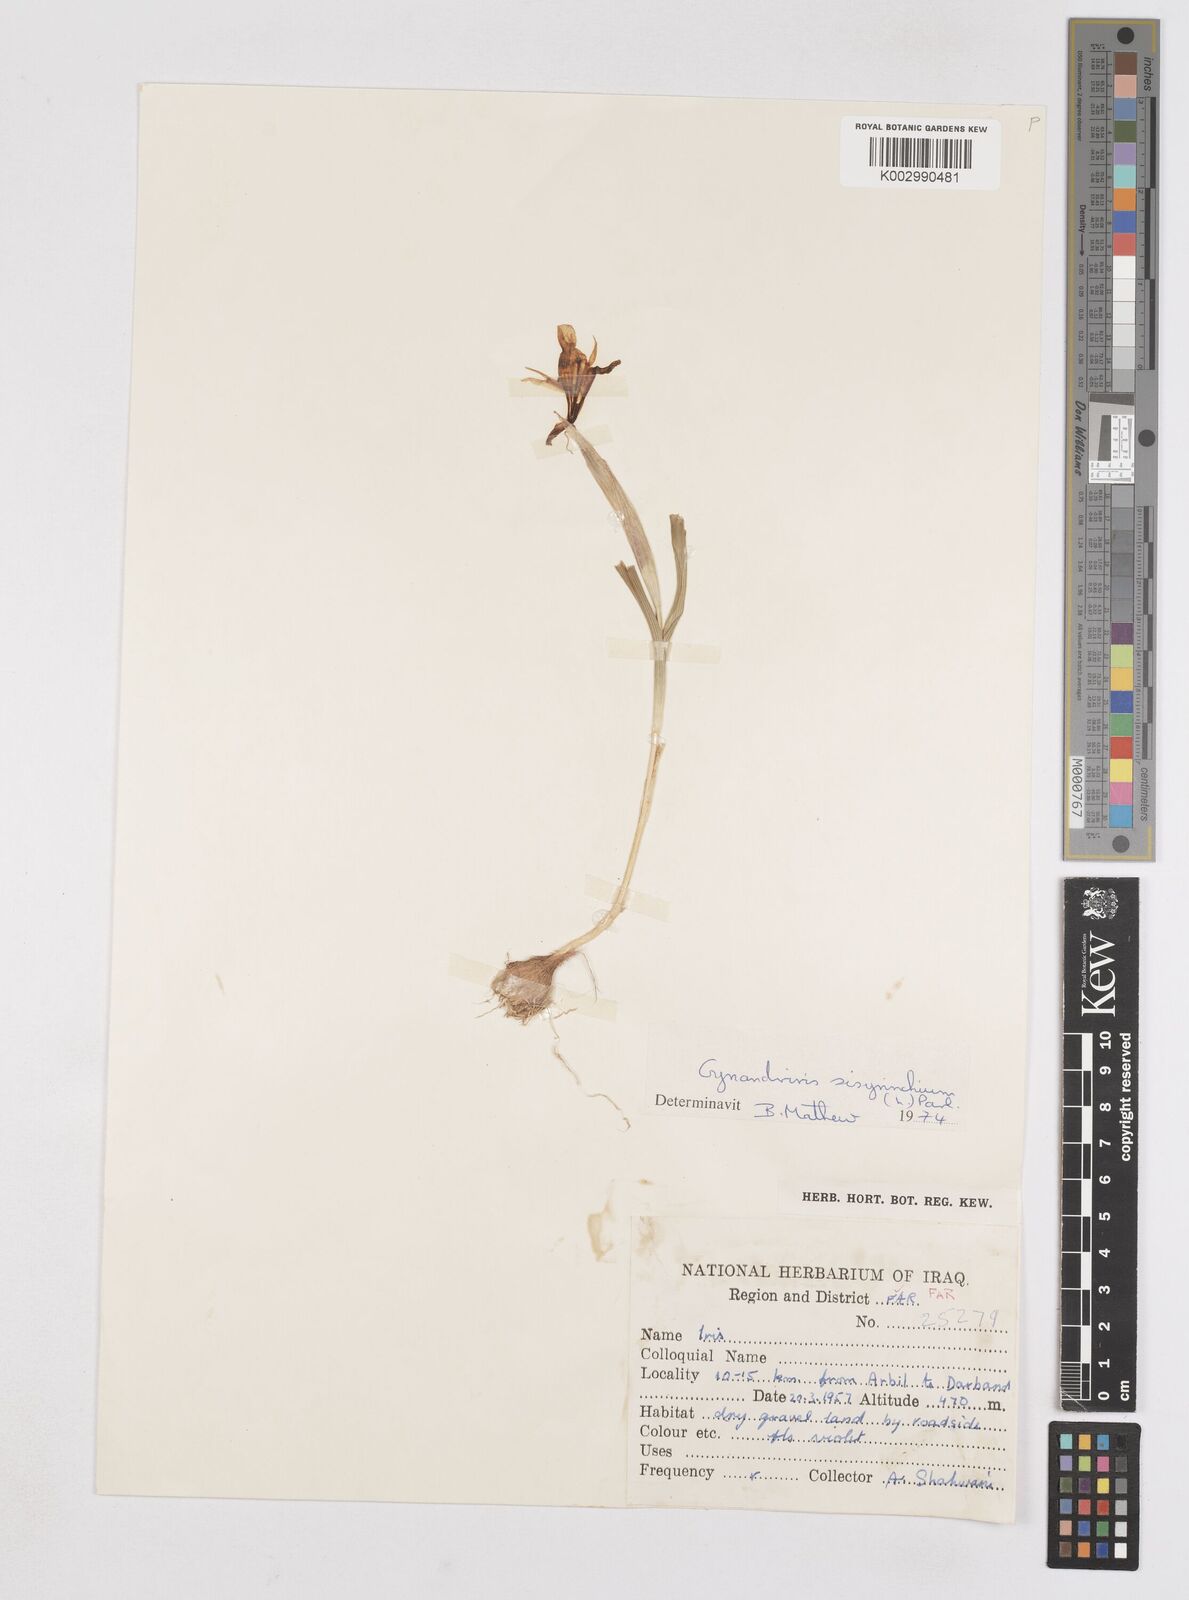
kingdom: Plantae
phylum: Tracheophyta
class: Liliopsida
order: Asparagales
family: Iridaceae
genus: Moraea
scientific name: Moraea sisyrinchium
